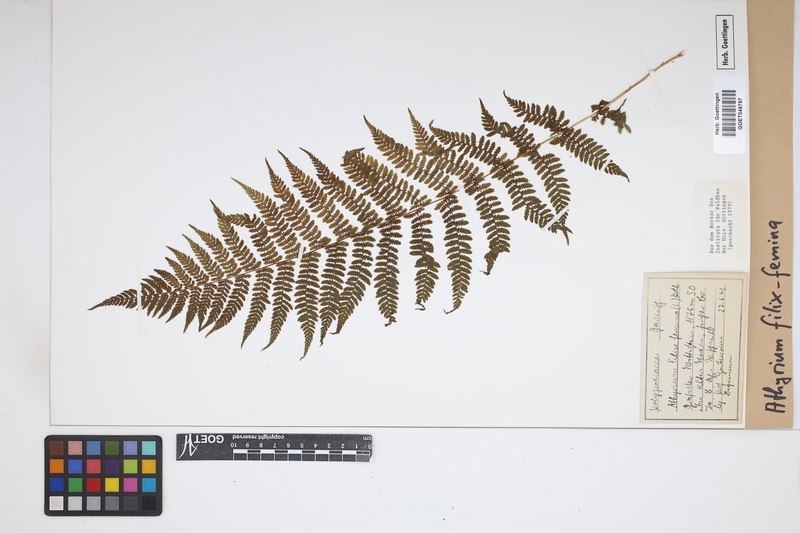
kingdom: Plantae
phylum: Tracheophyta
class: Polypodiopsida
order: Polypodiales
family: Athyriaceae
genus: Athyrium
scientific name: Athyrium filix-femina
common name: Lady fern
